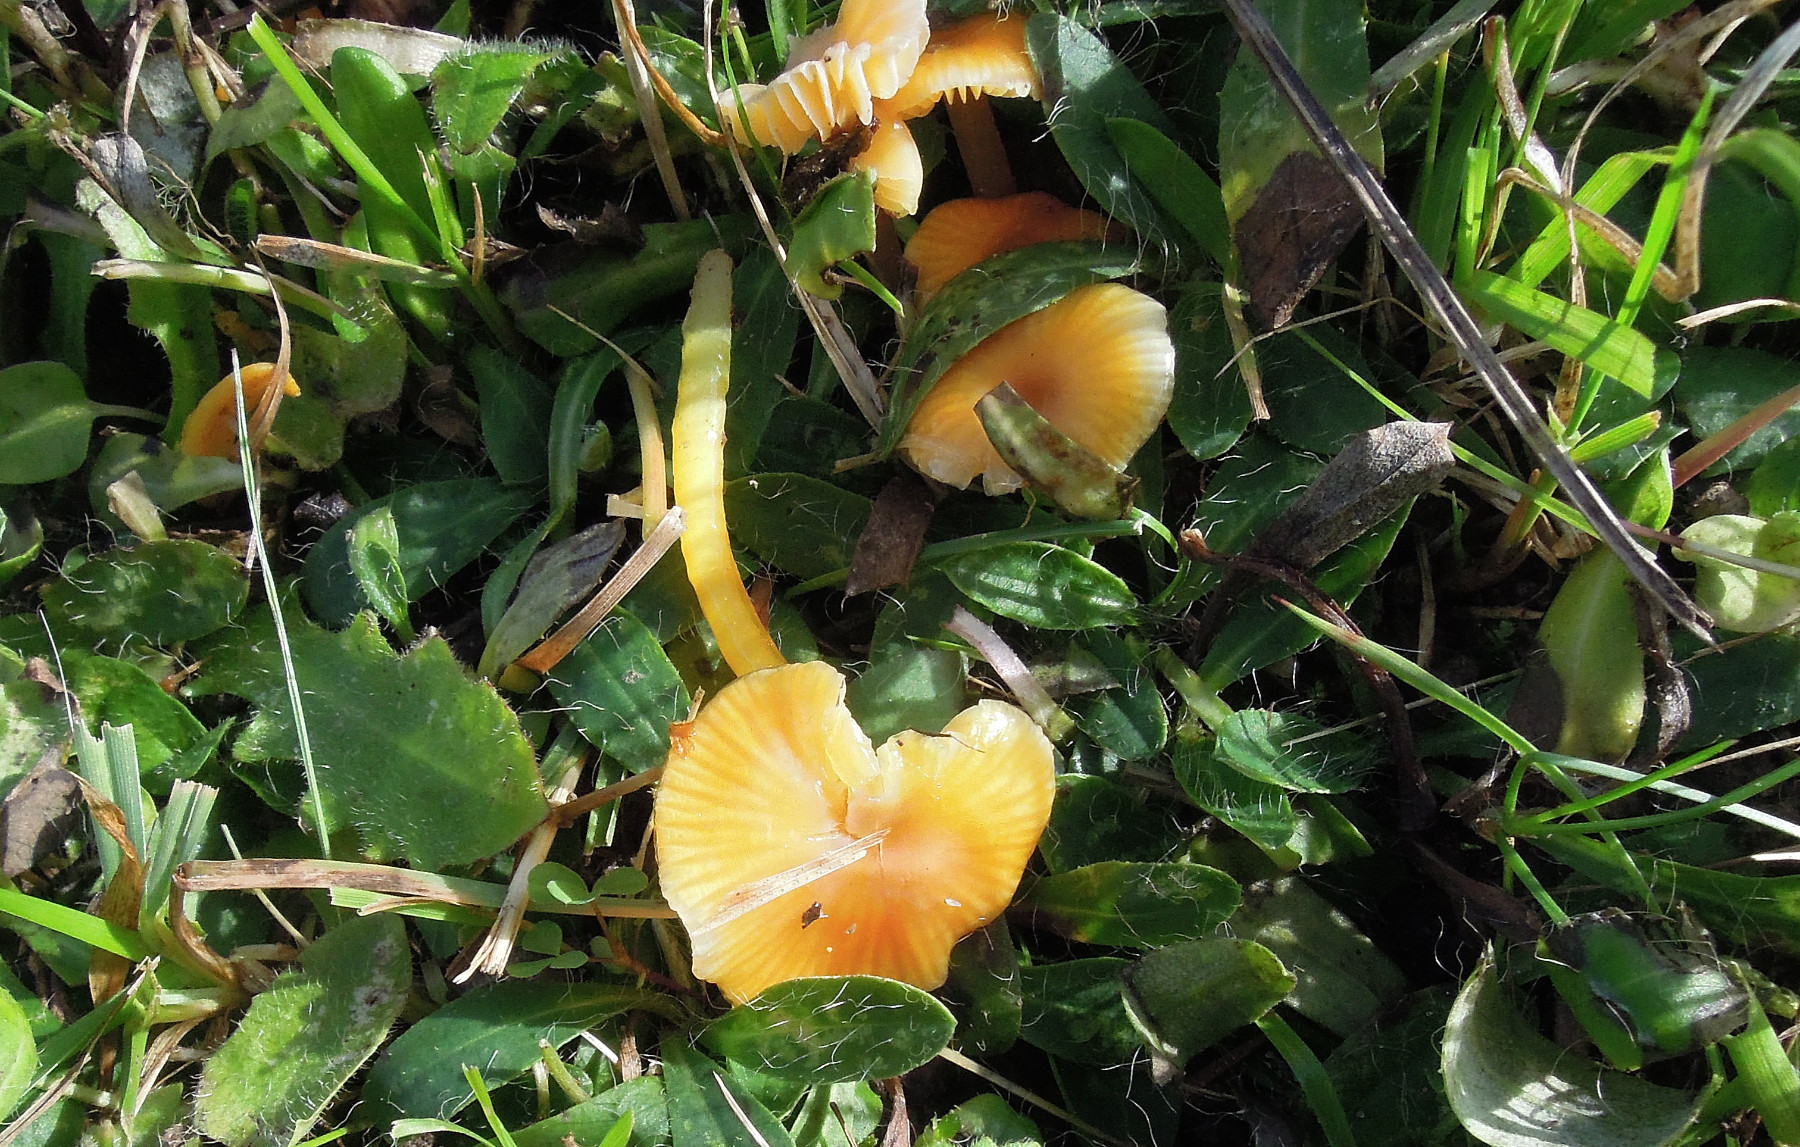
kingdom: Fungi
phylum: Basidiomycota
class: Agaricomycetes
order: Agaricales
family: Hygrophoraceae
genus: Hygrocybe
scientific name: Hygrocybe glutinipes
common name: slimstokket vokshat
